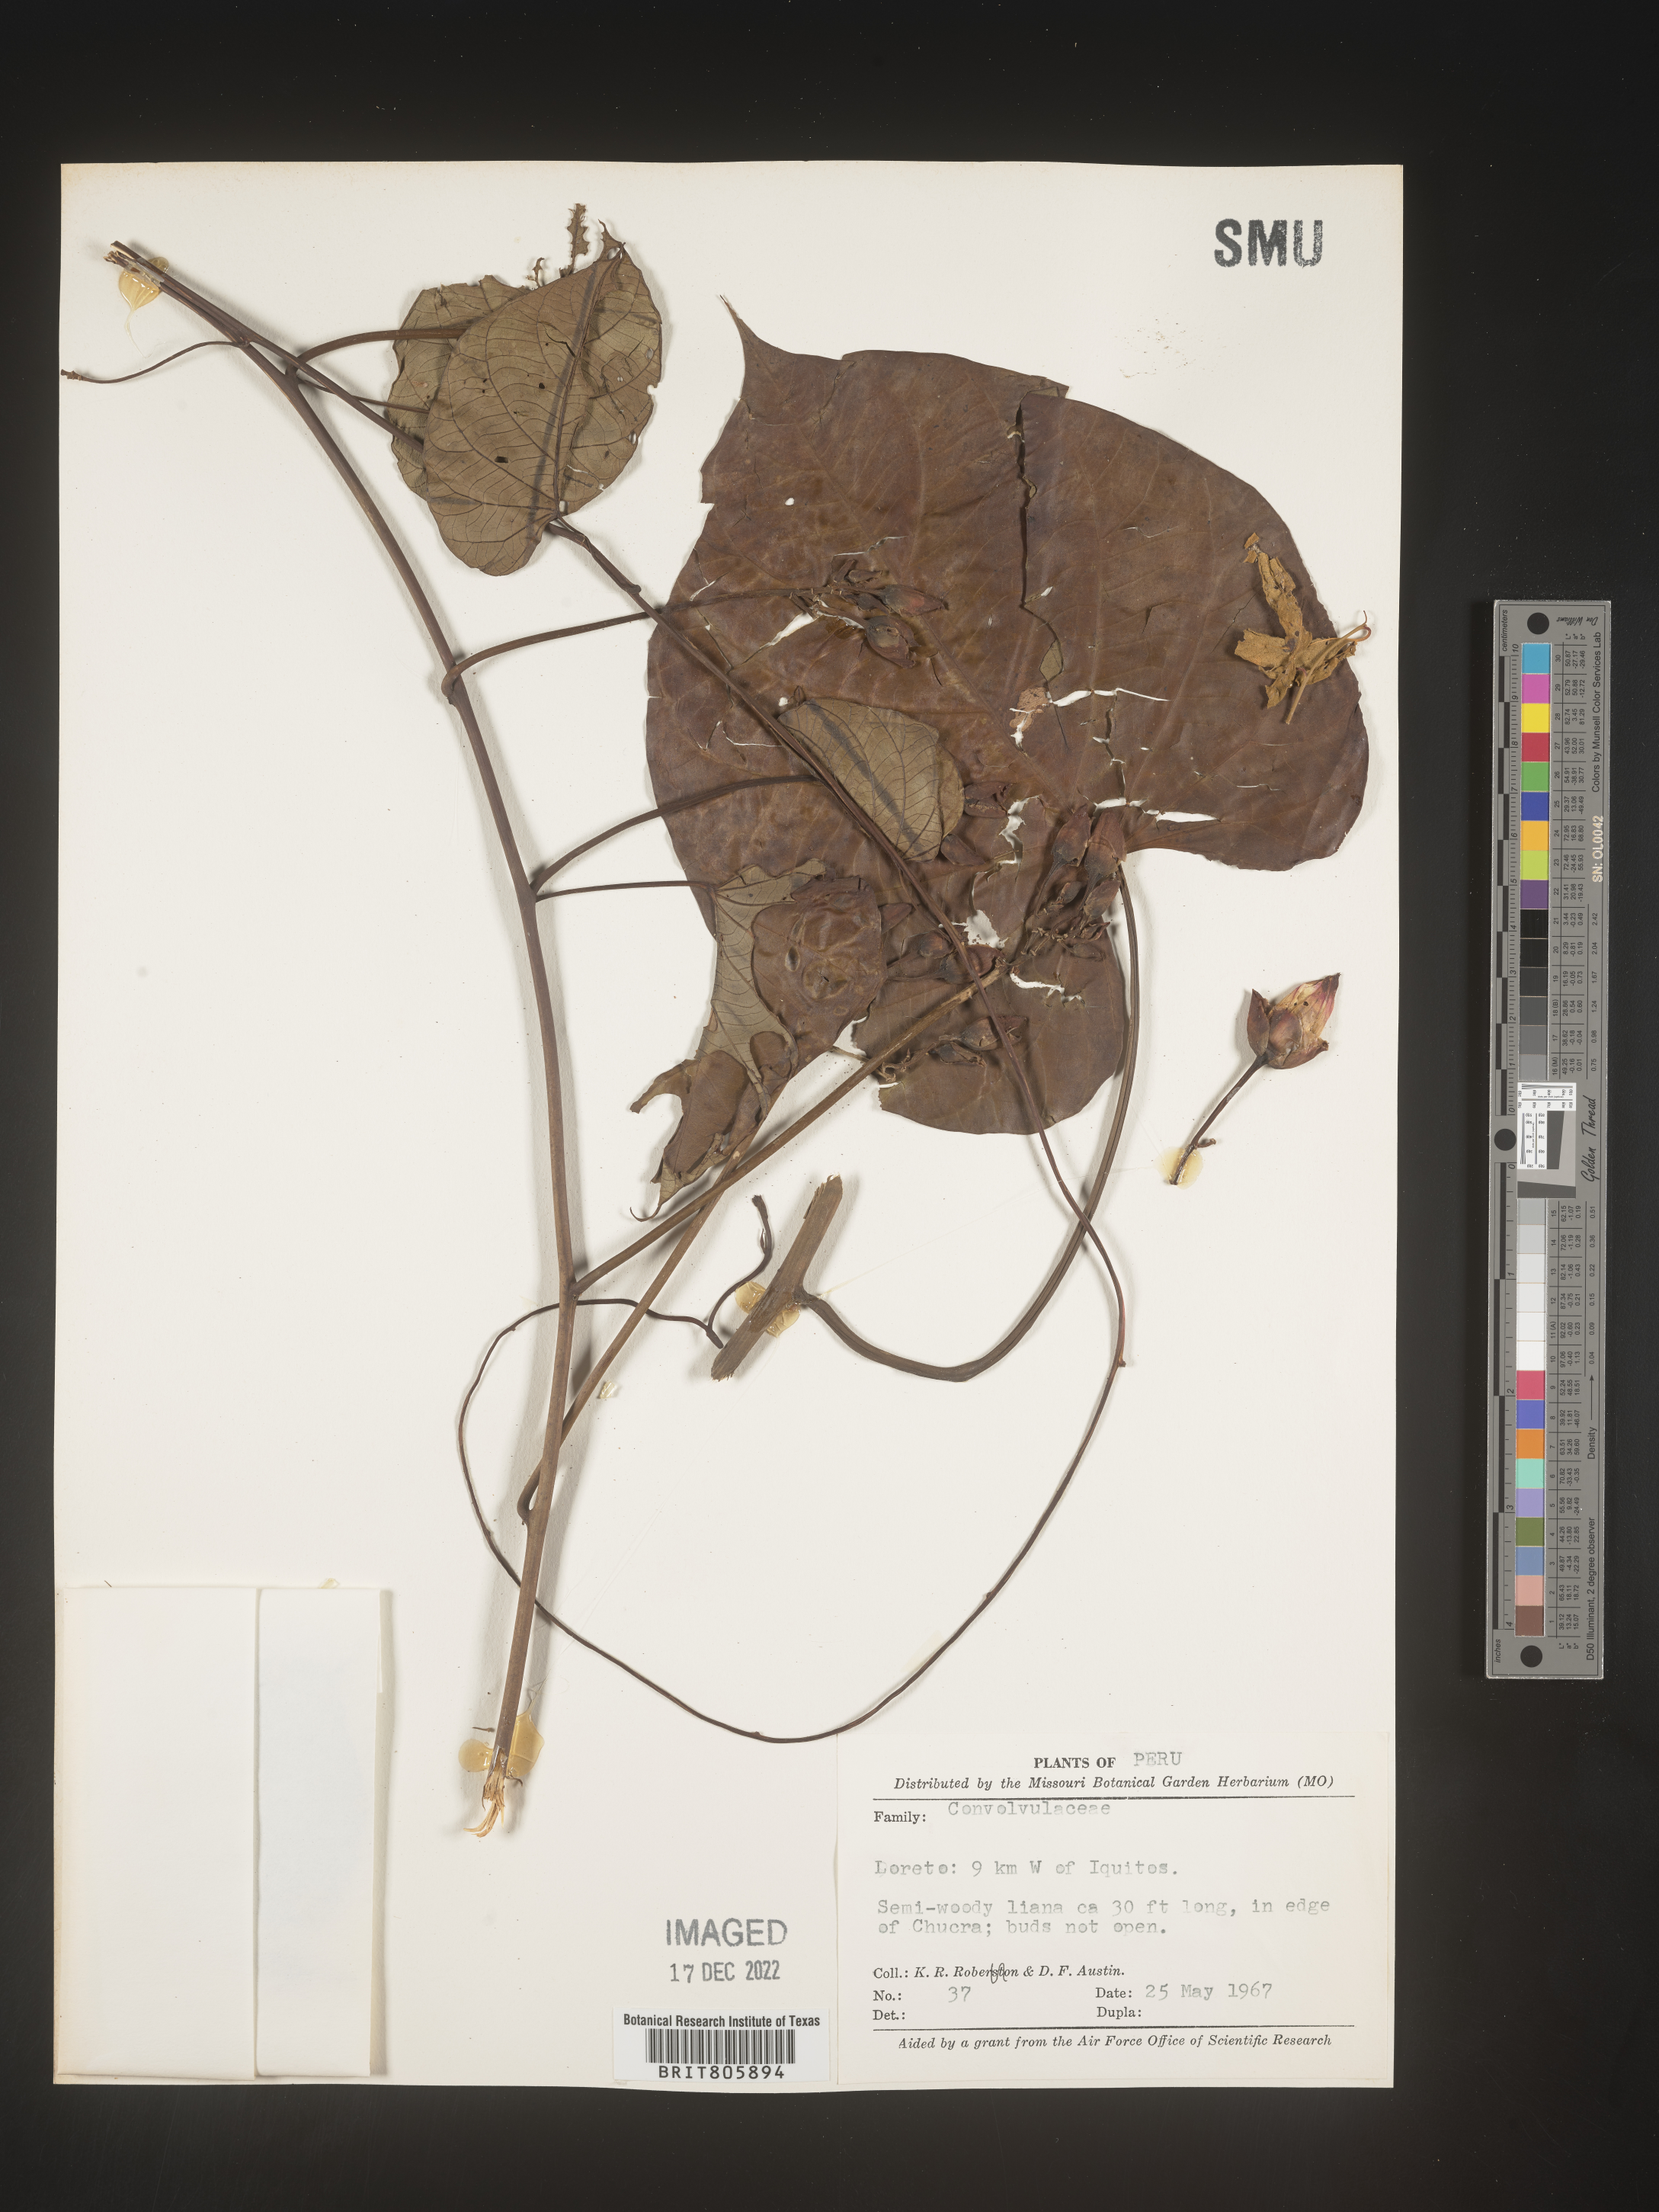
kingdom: Animalia
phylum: Mollusca
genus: Turbina
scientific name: Turbina
